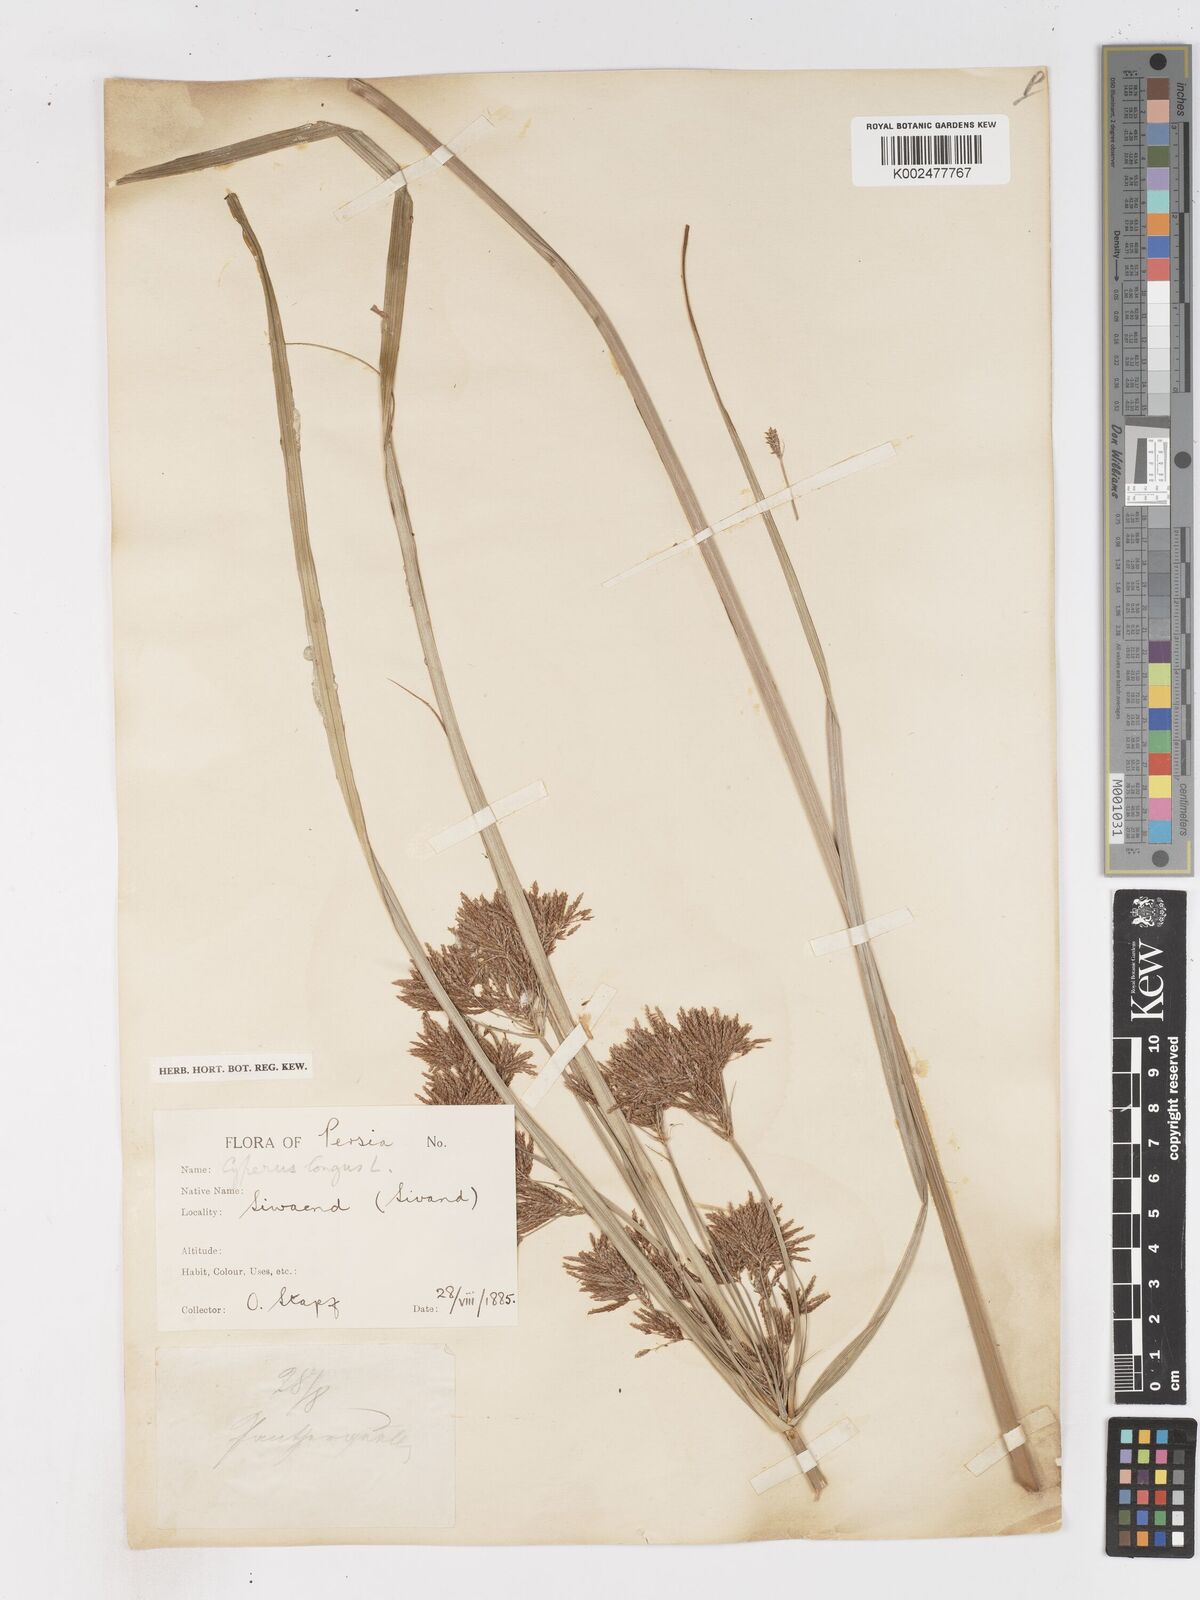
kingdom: Plantae
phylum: Tracheophyta
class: Liliopsida
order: Poales
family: Cyperaceae
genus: Cyperus
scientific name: Cyperus longus
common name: Galingale
